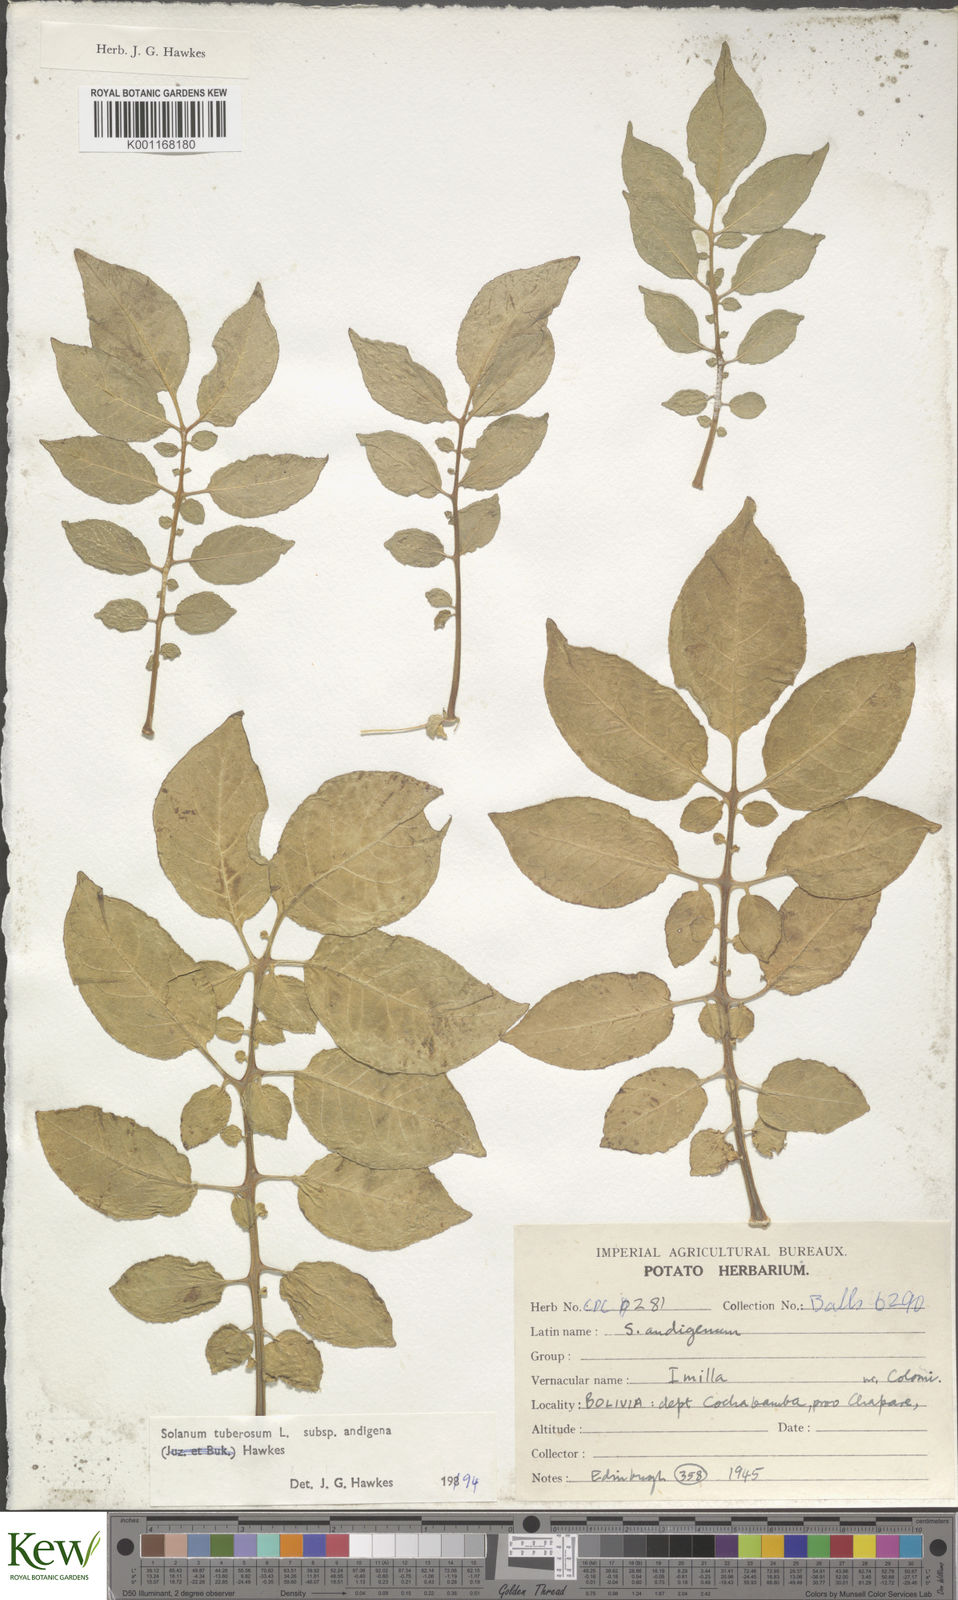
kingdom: Plantae
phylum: Tracheophyta
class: Magnoliopsida
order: Solanales
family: Solanaceae
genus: Solanum
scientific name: Solanum tuberosum
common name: Potato
